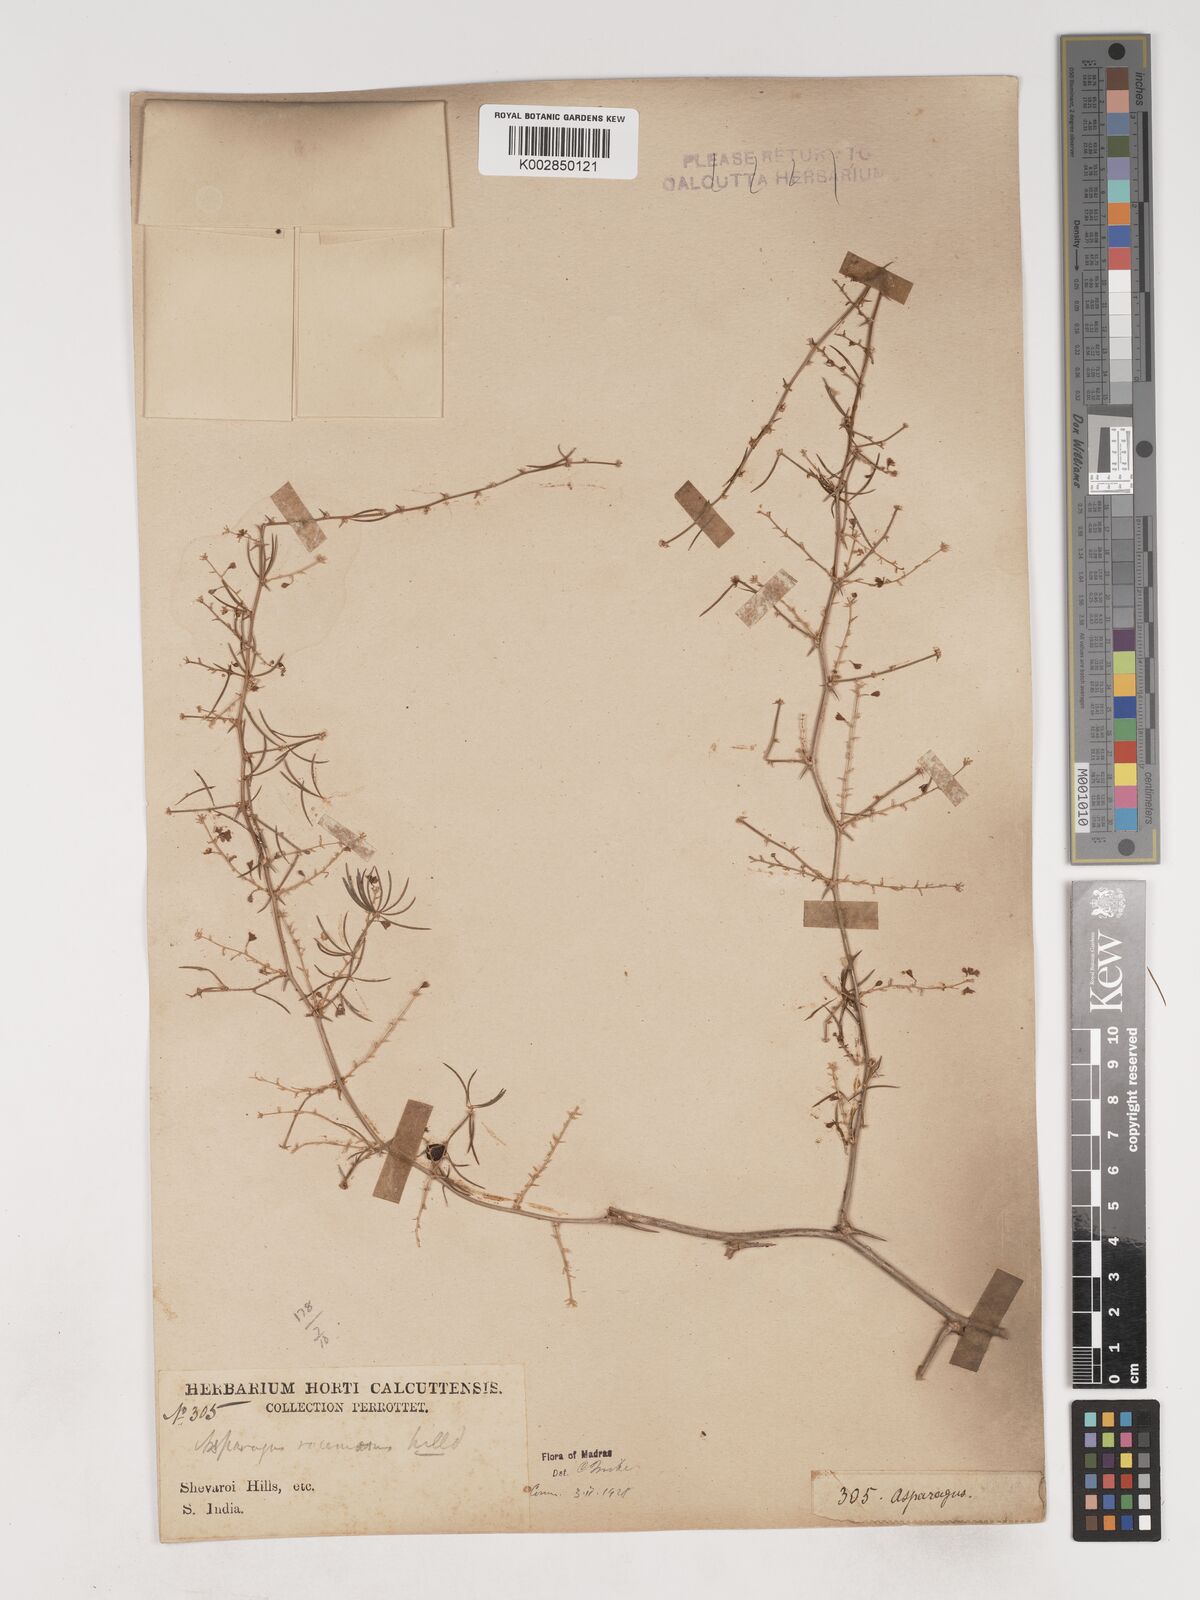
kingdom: Plantae
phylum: Tracheophyta
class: Liliopsida
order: Asparagales
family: Asparagaceae
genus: Asparagus
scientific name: Asparagus racemosus
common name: Asparagus-fern
